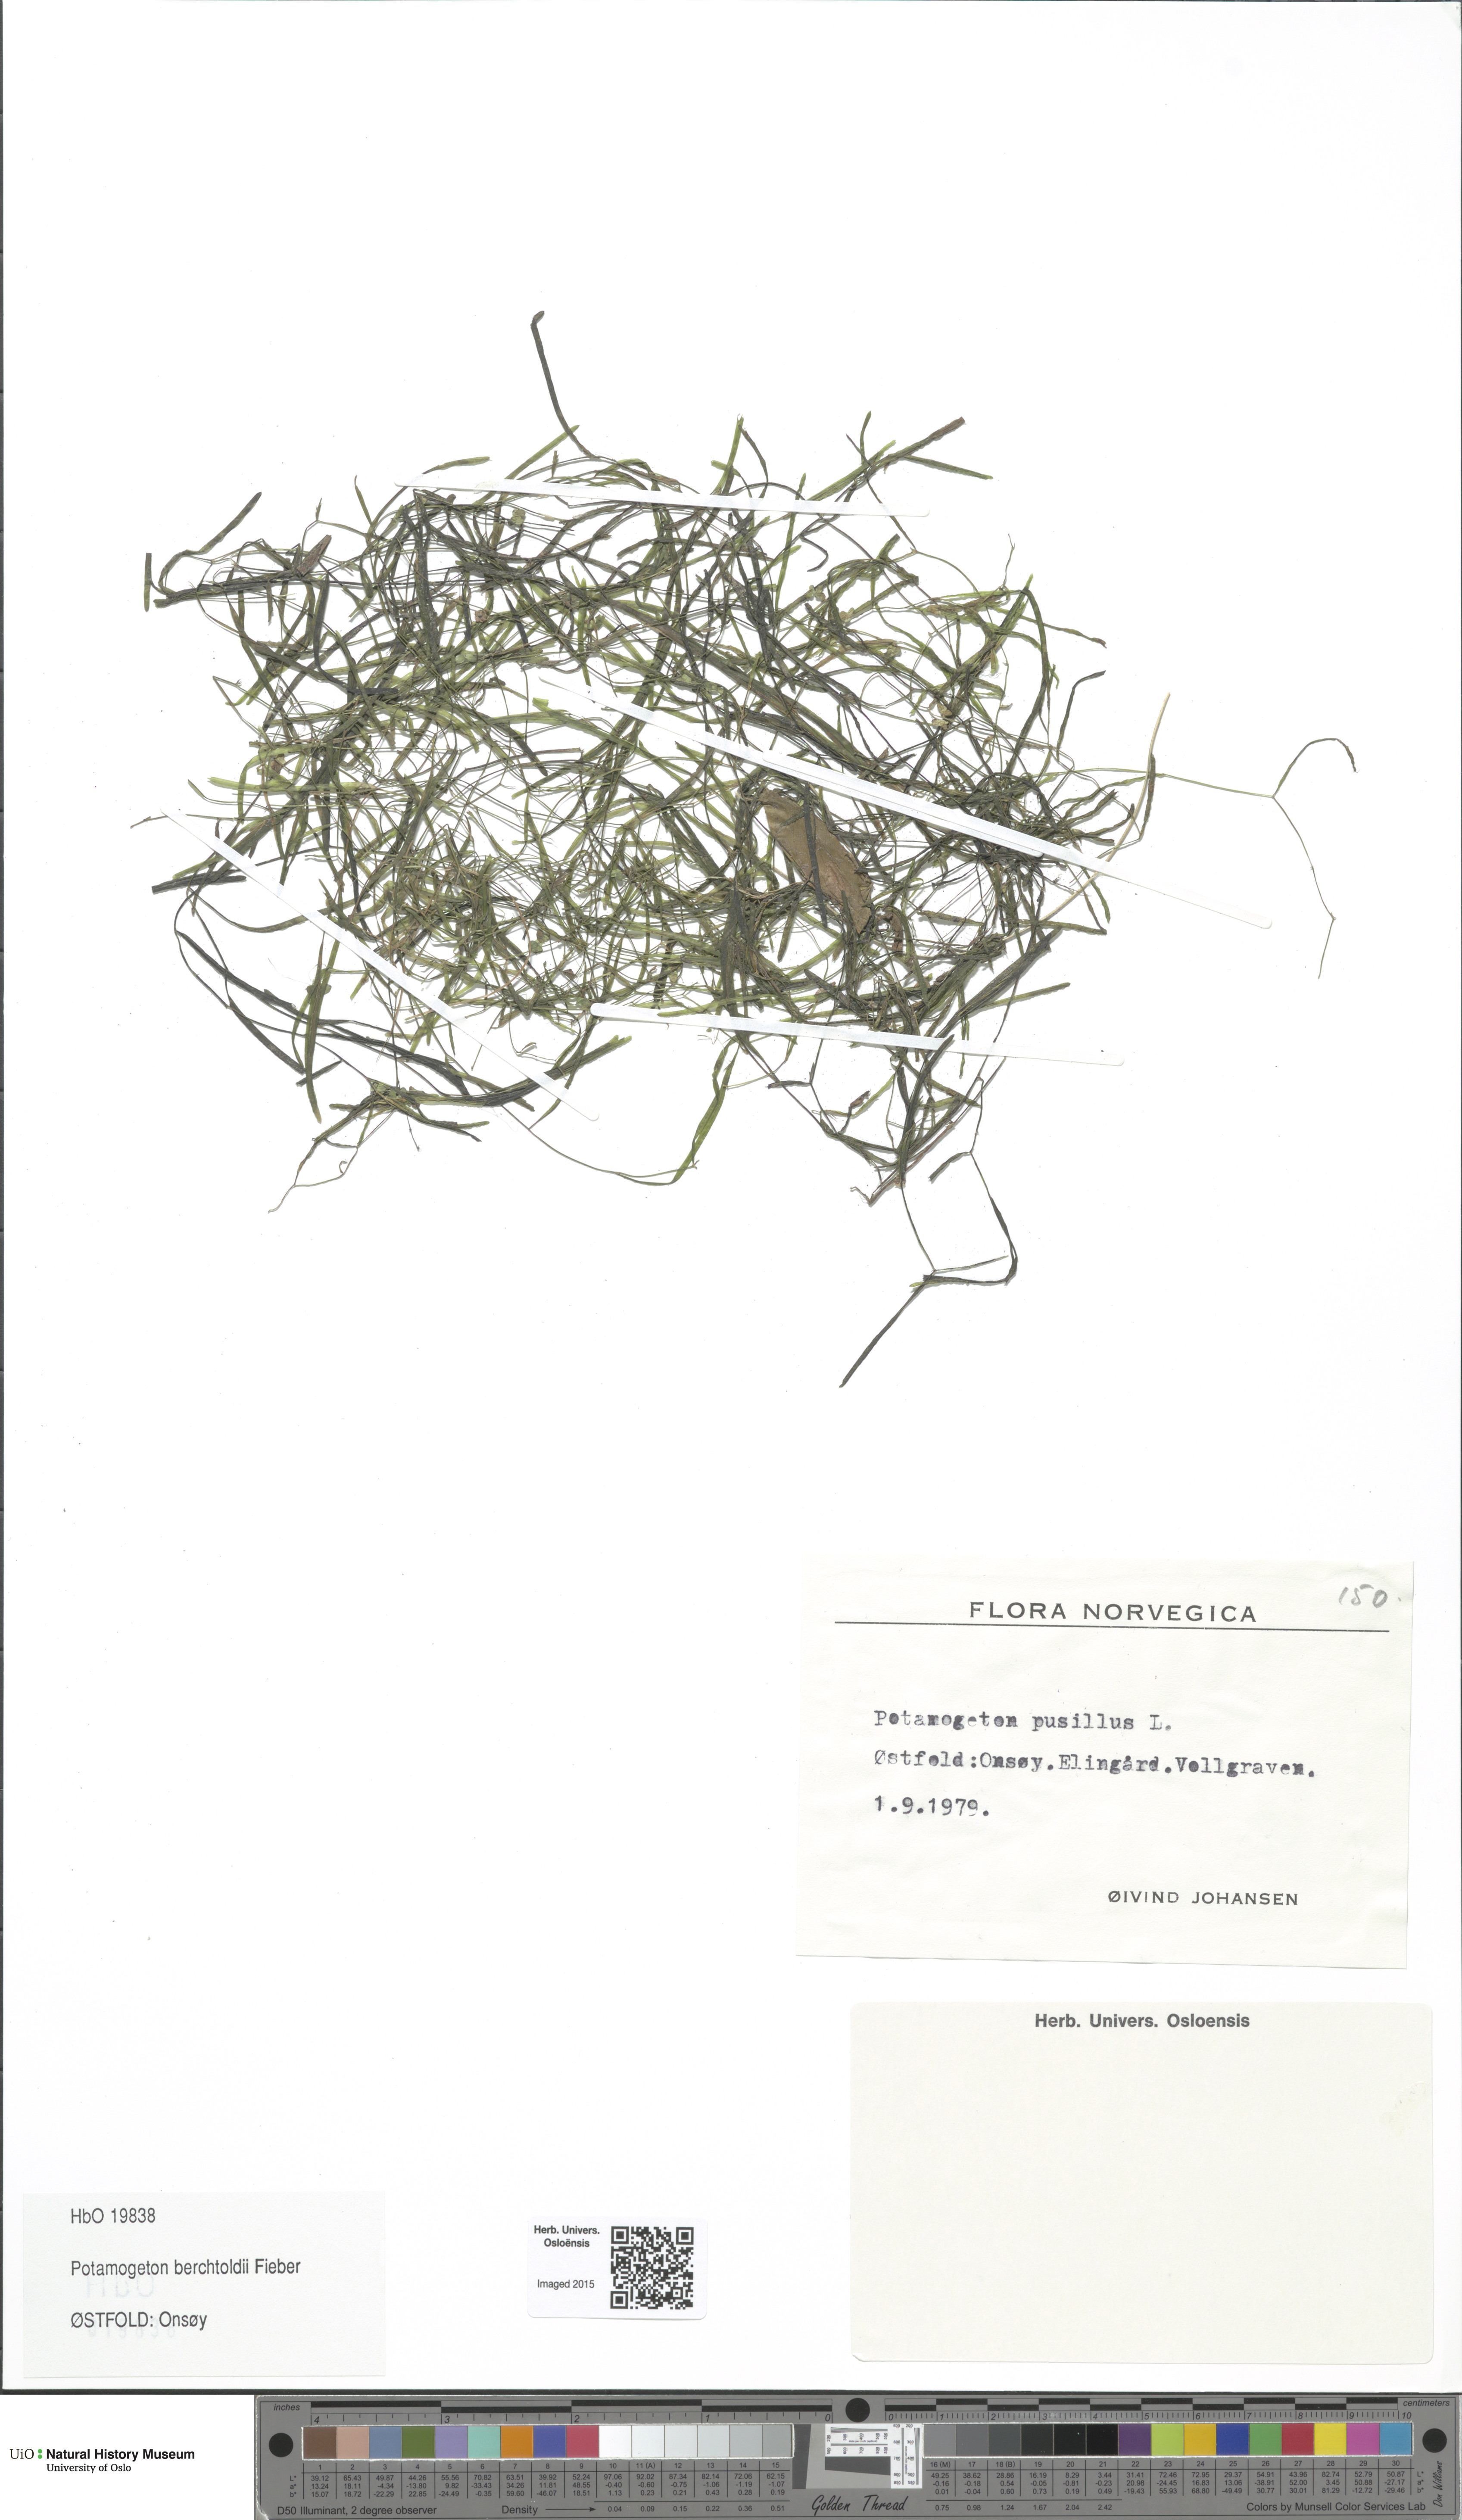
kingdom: Plantae
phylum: Tracheophyta
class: Liliopsida
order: Alismatales
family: Potamogetonaceae
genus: Potamogeton
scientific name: Potamogeton berchtoldii
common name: Small pondweed
